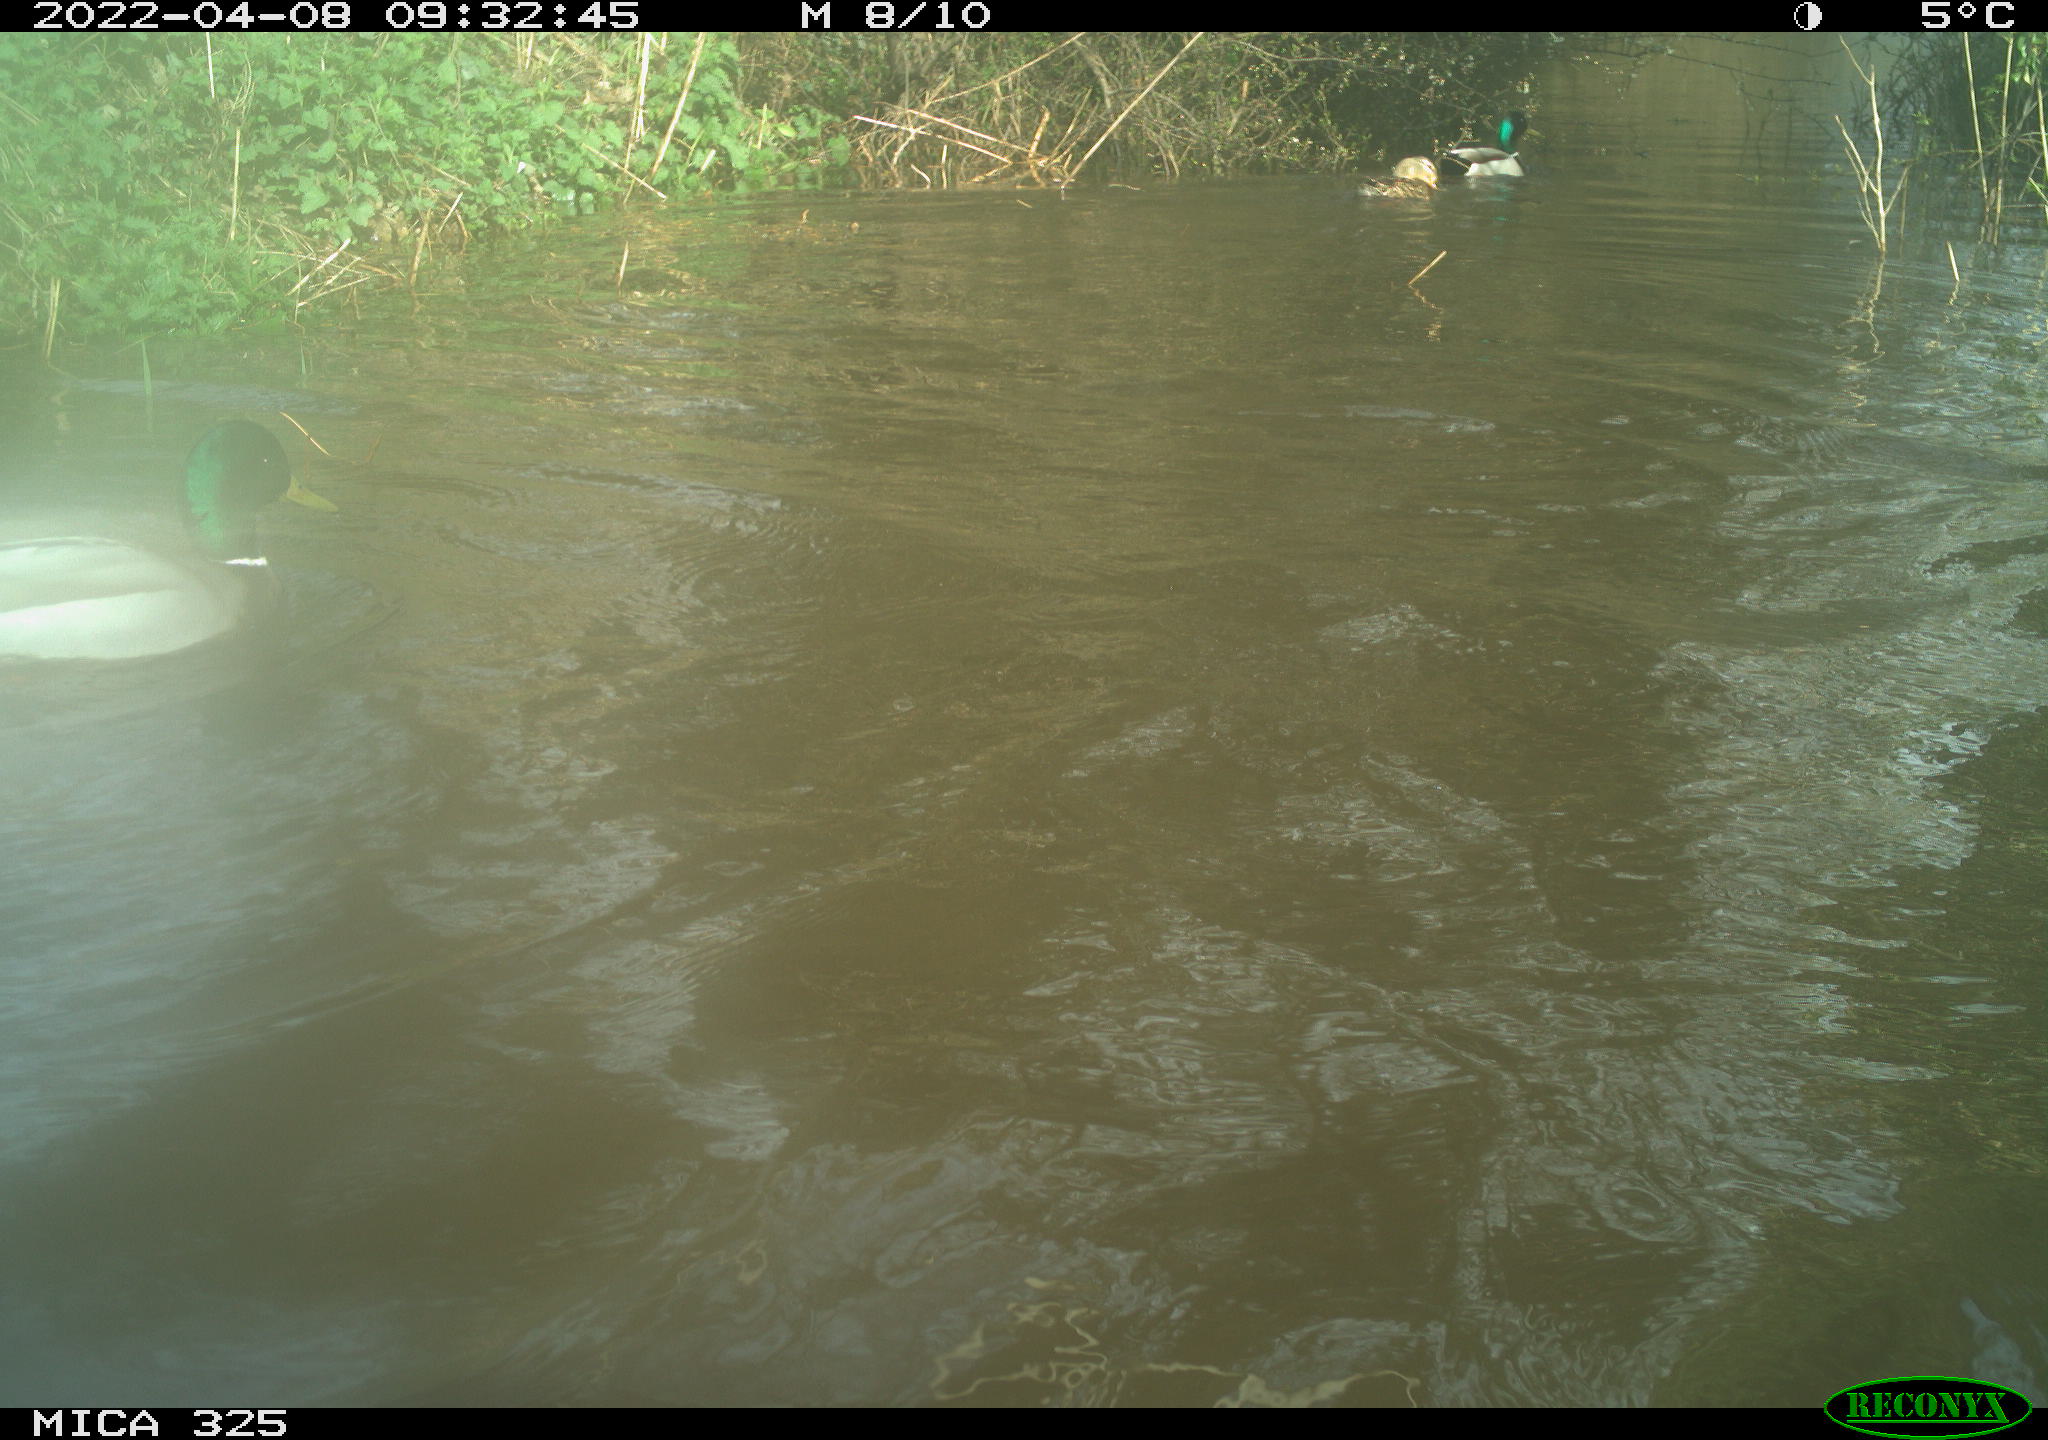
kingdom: Animalia
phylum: Chordata
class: Aves
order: Anseriformes
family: Anatidae
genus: Anas
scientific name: Anas platyrhynchos
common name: Mallard
